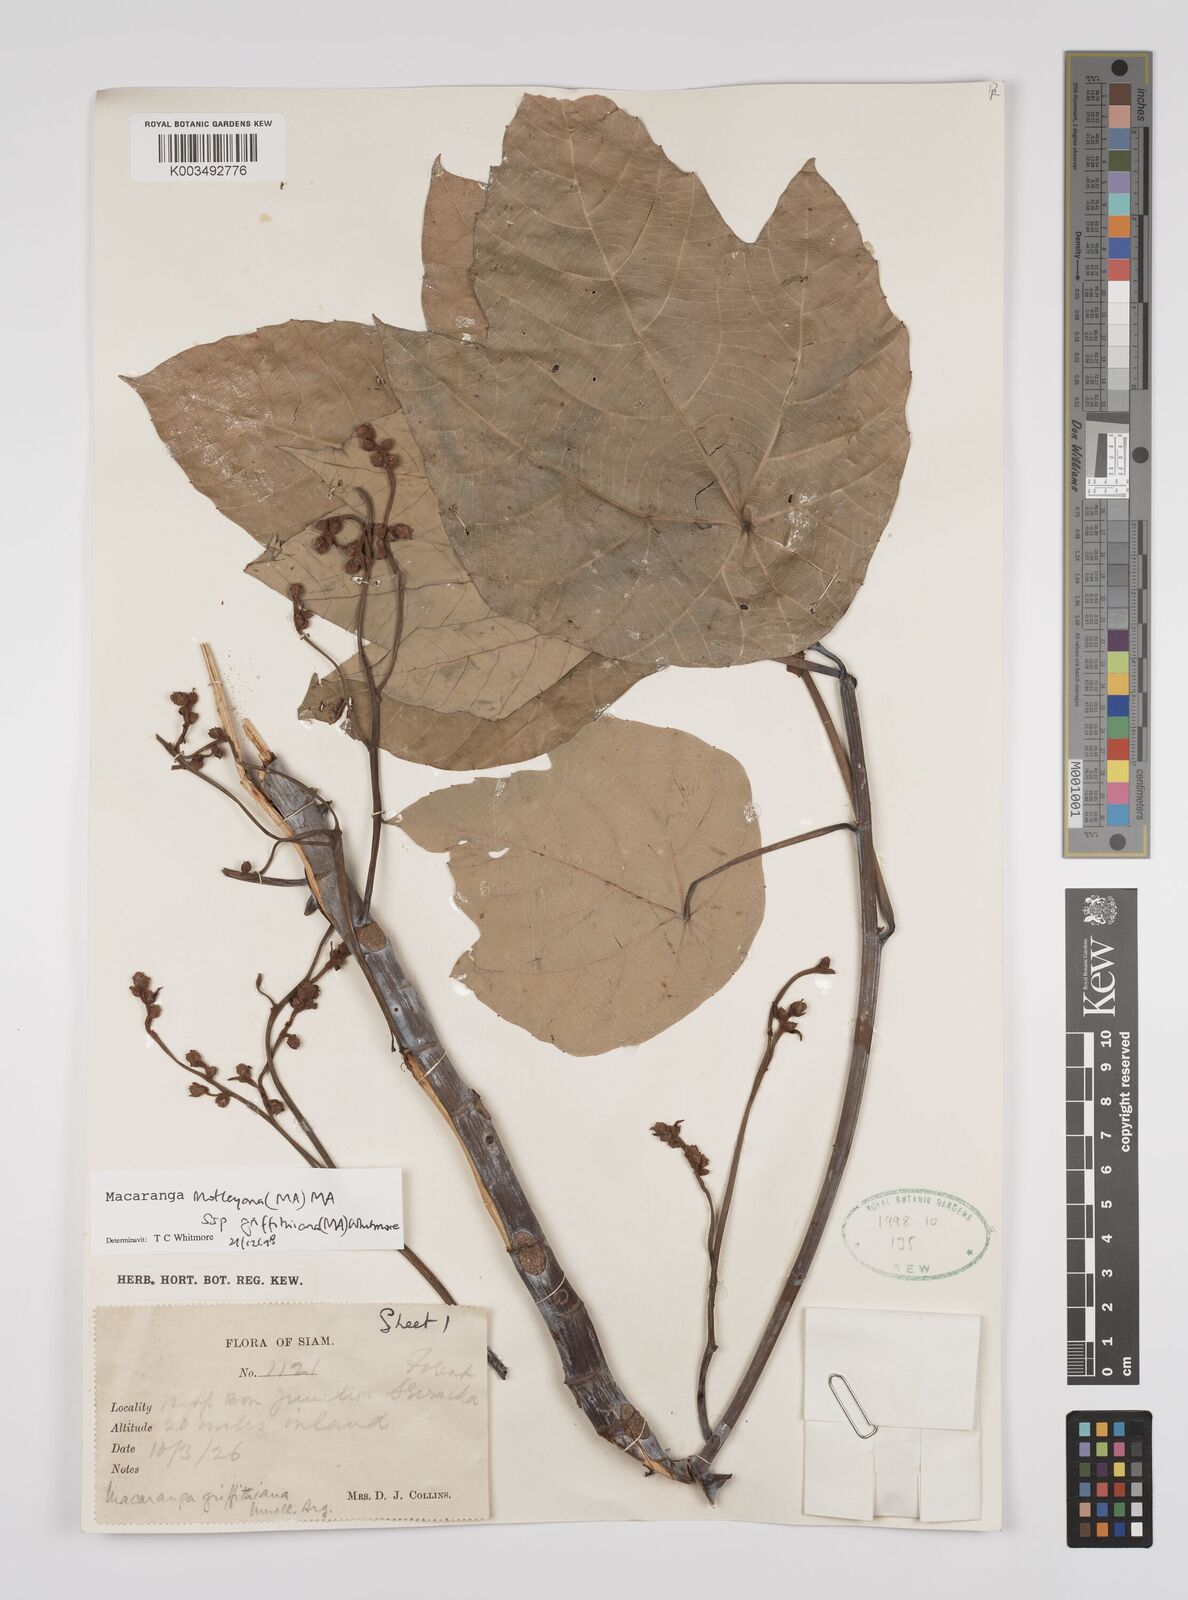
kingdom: Plantae
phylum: Tracheophyta
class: Magnoliopsida
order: Malpighiales
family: Euphorbiaceae
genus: Macaranga
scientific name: Macaranga griffithiana
